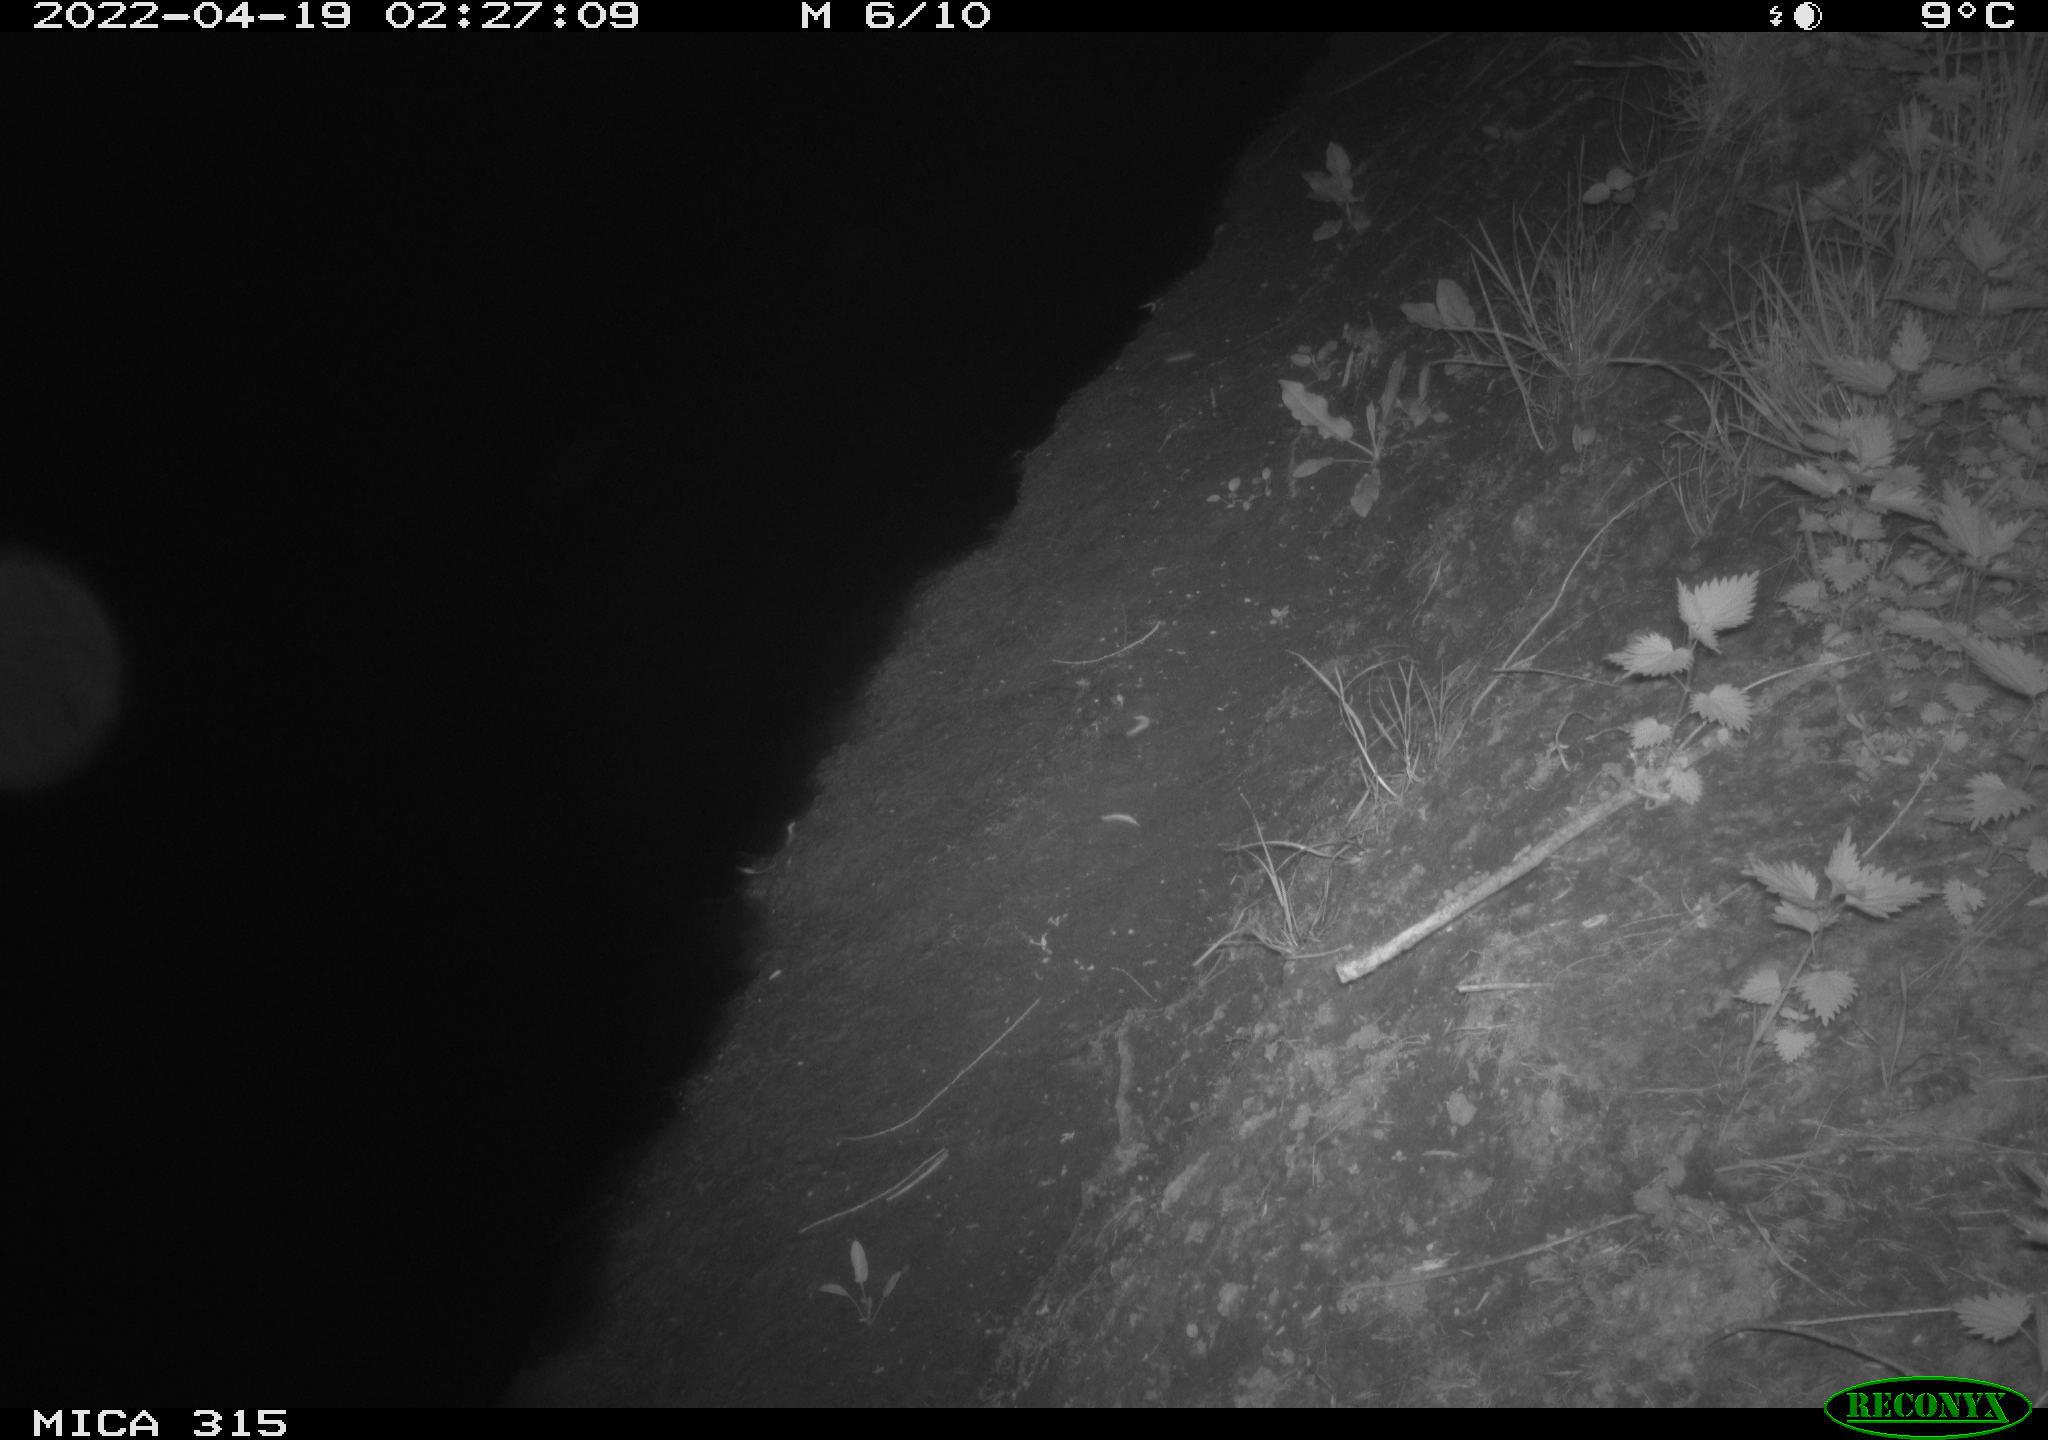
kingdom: Animalia
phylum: Chordata
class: Mammalia
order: Artiodactyla
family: Cervidae
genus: Capreolus
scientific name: Capreolus capreolus
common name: Western roe deer
